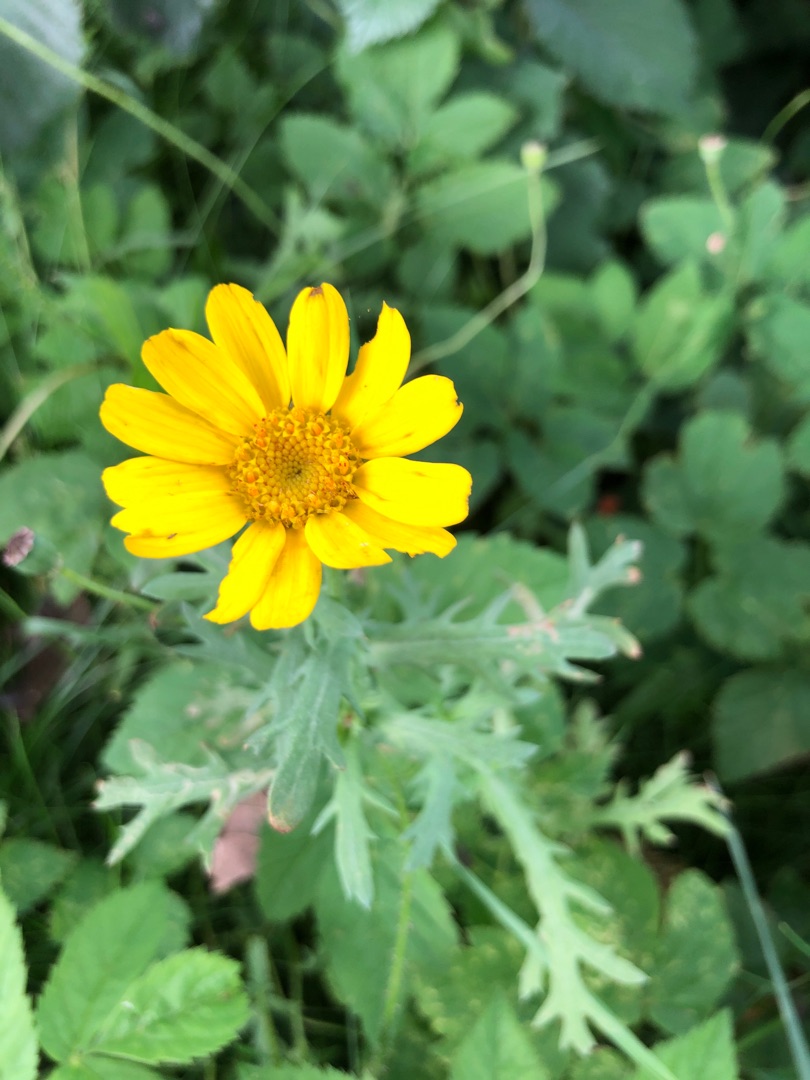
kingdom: Plantae
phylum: Tracheophyta
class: Magnoliopsida
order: Asterales
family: Asteraceae
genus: Glebionis
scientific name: Glebionis segetum
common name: Gul okseøje
